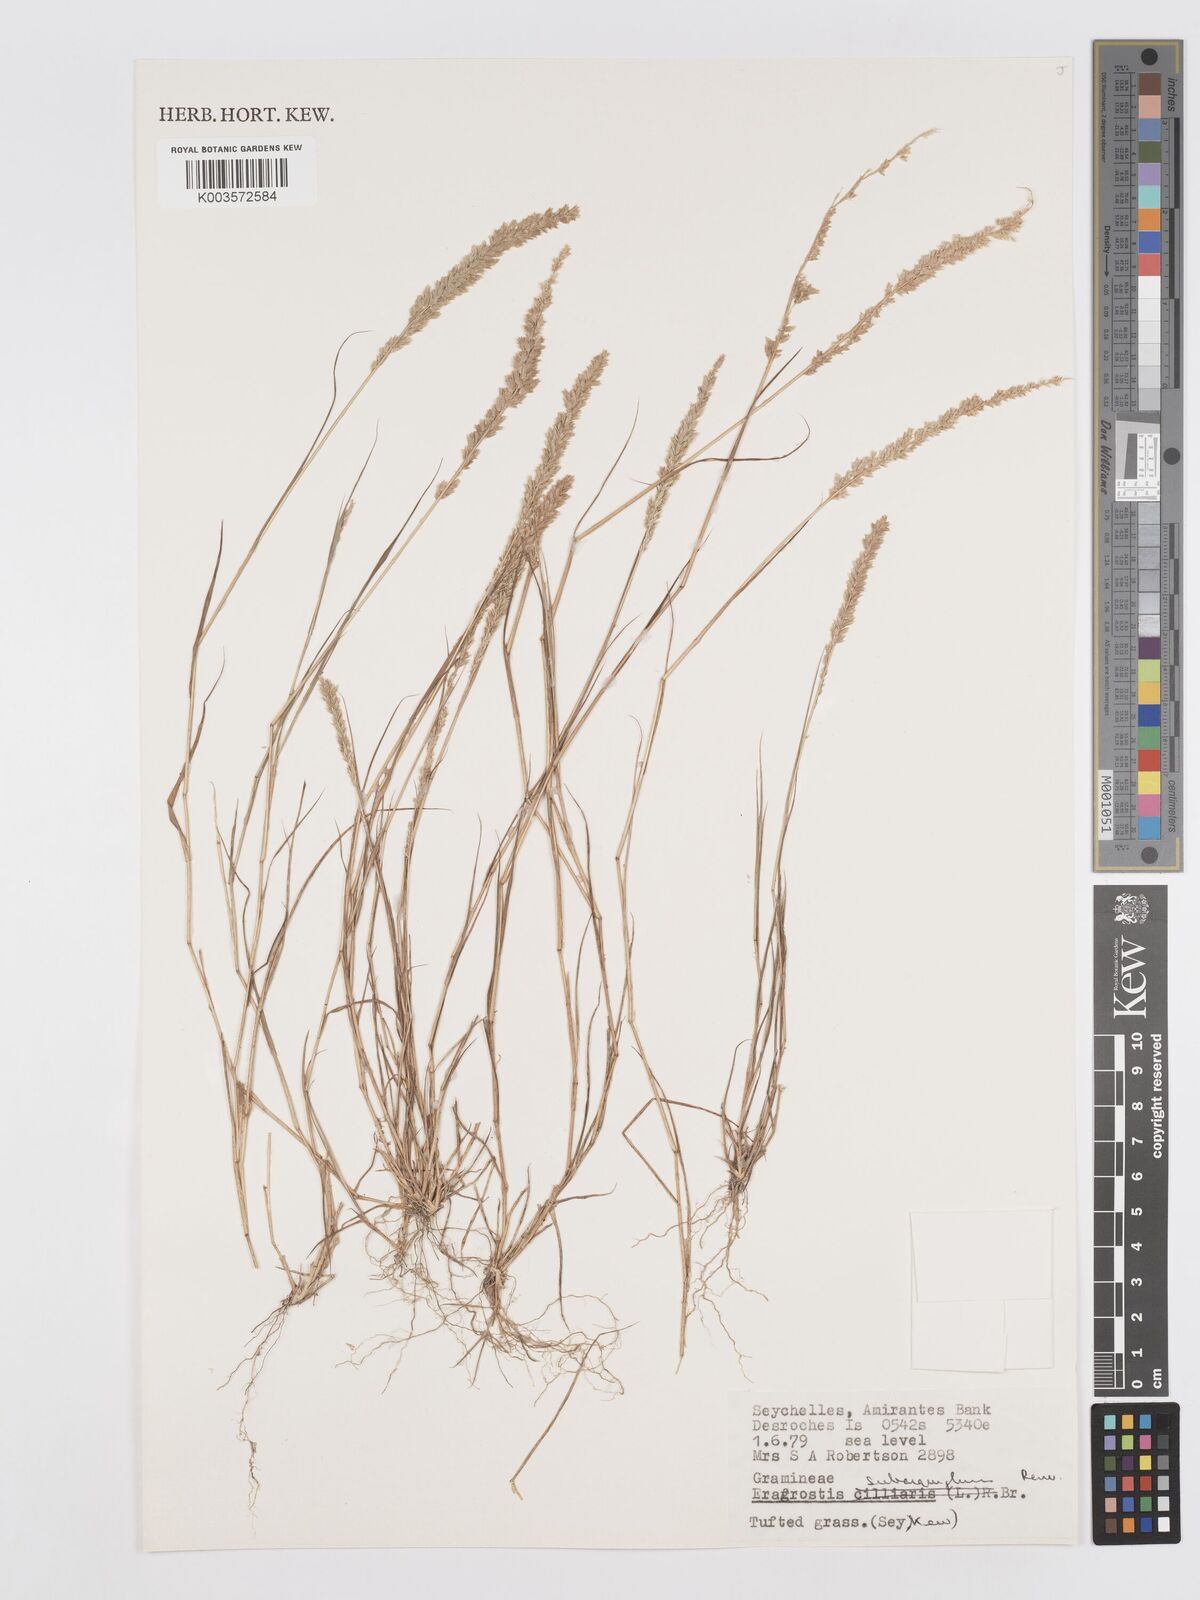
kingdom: Plantae
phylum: Tracheophyta
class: Liliopsida
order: Poales
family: Poaceae
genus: Eragrostis
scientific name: Eragrostis subaequiglumis
